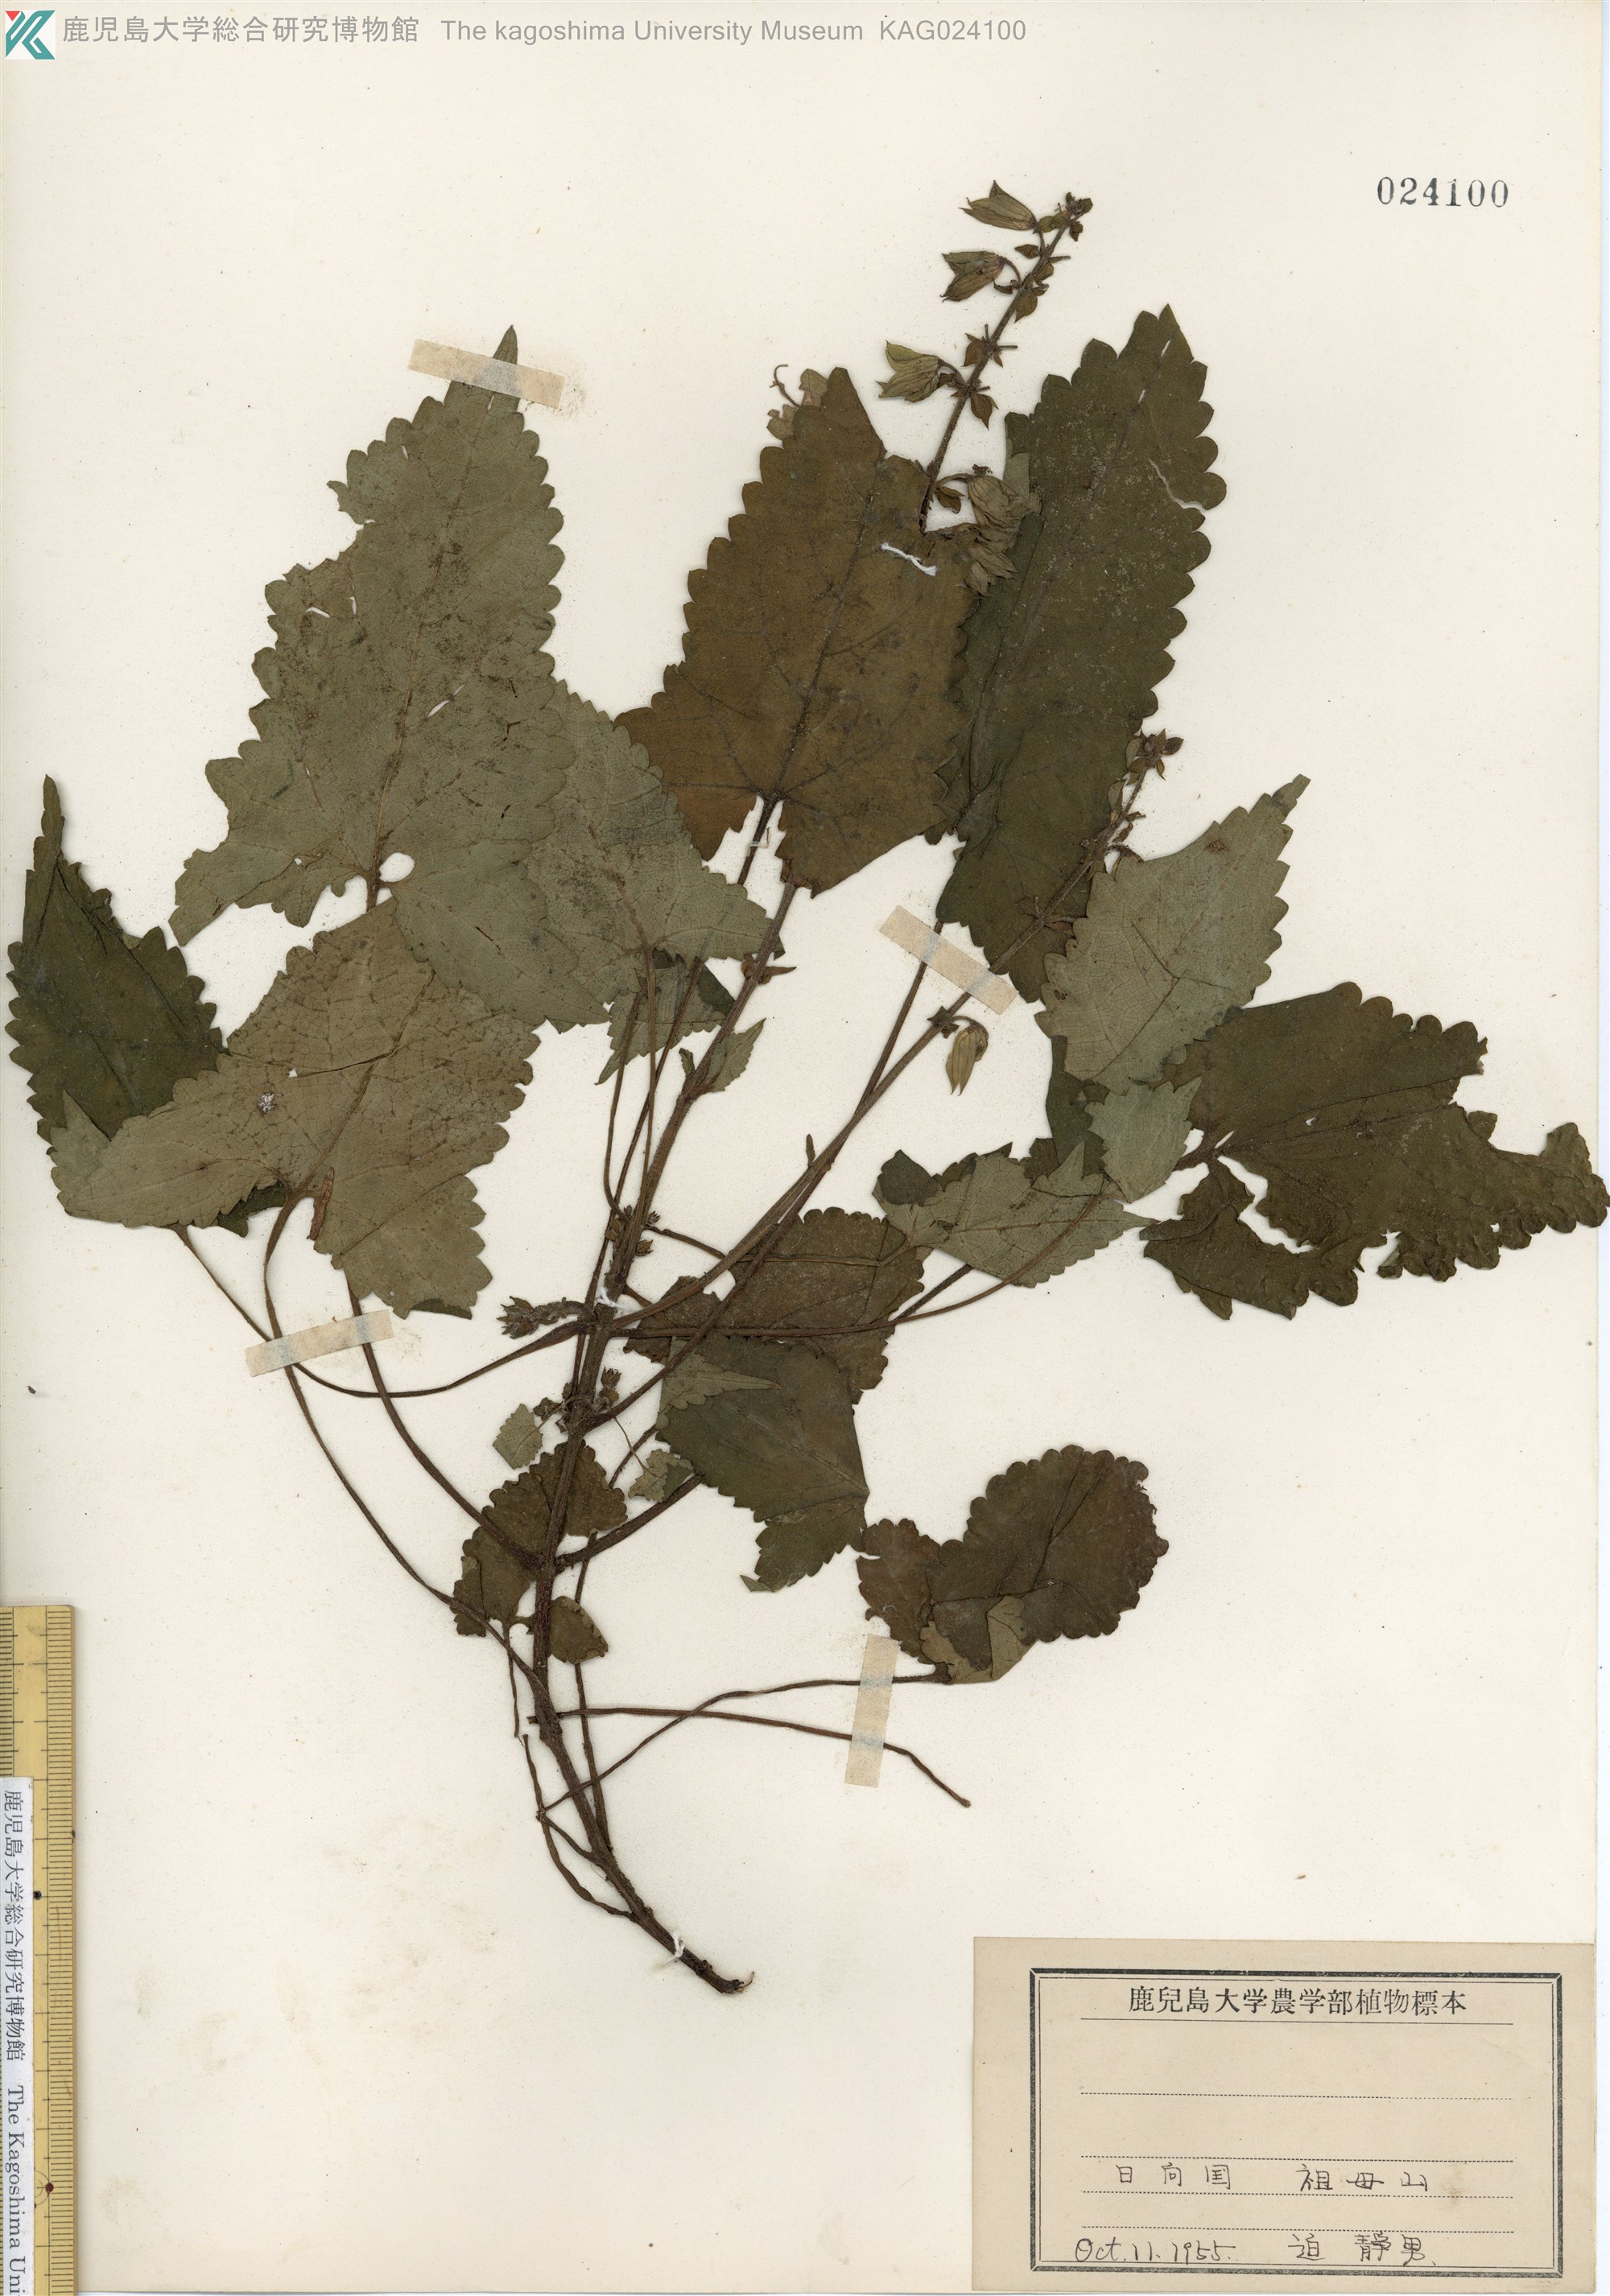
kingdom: Plantae
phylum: Tracheophyta
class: Magnoliopsida
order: Lamiales
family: Lamiaceae
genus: Salvia
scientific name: Salvia nipponica
